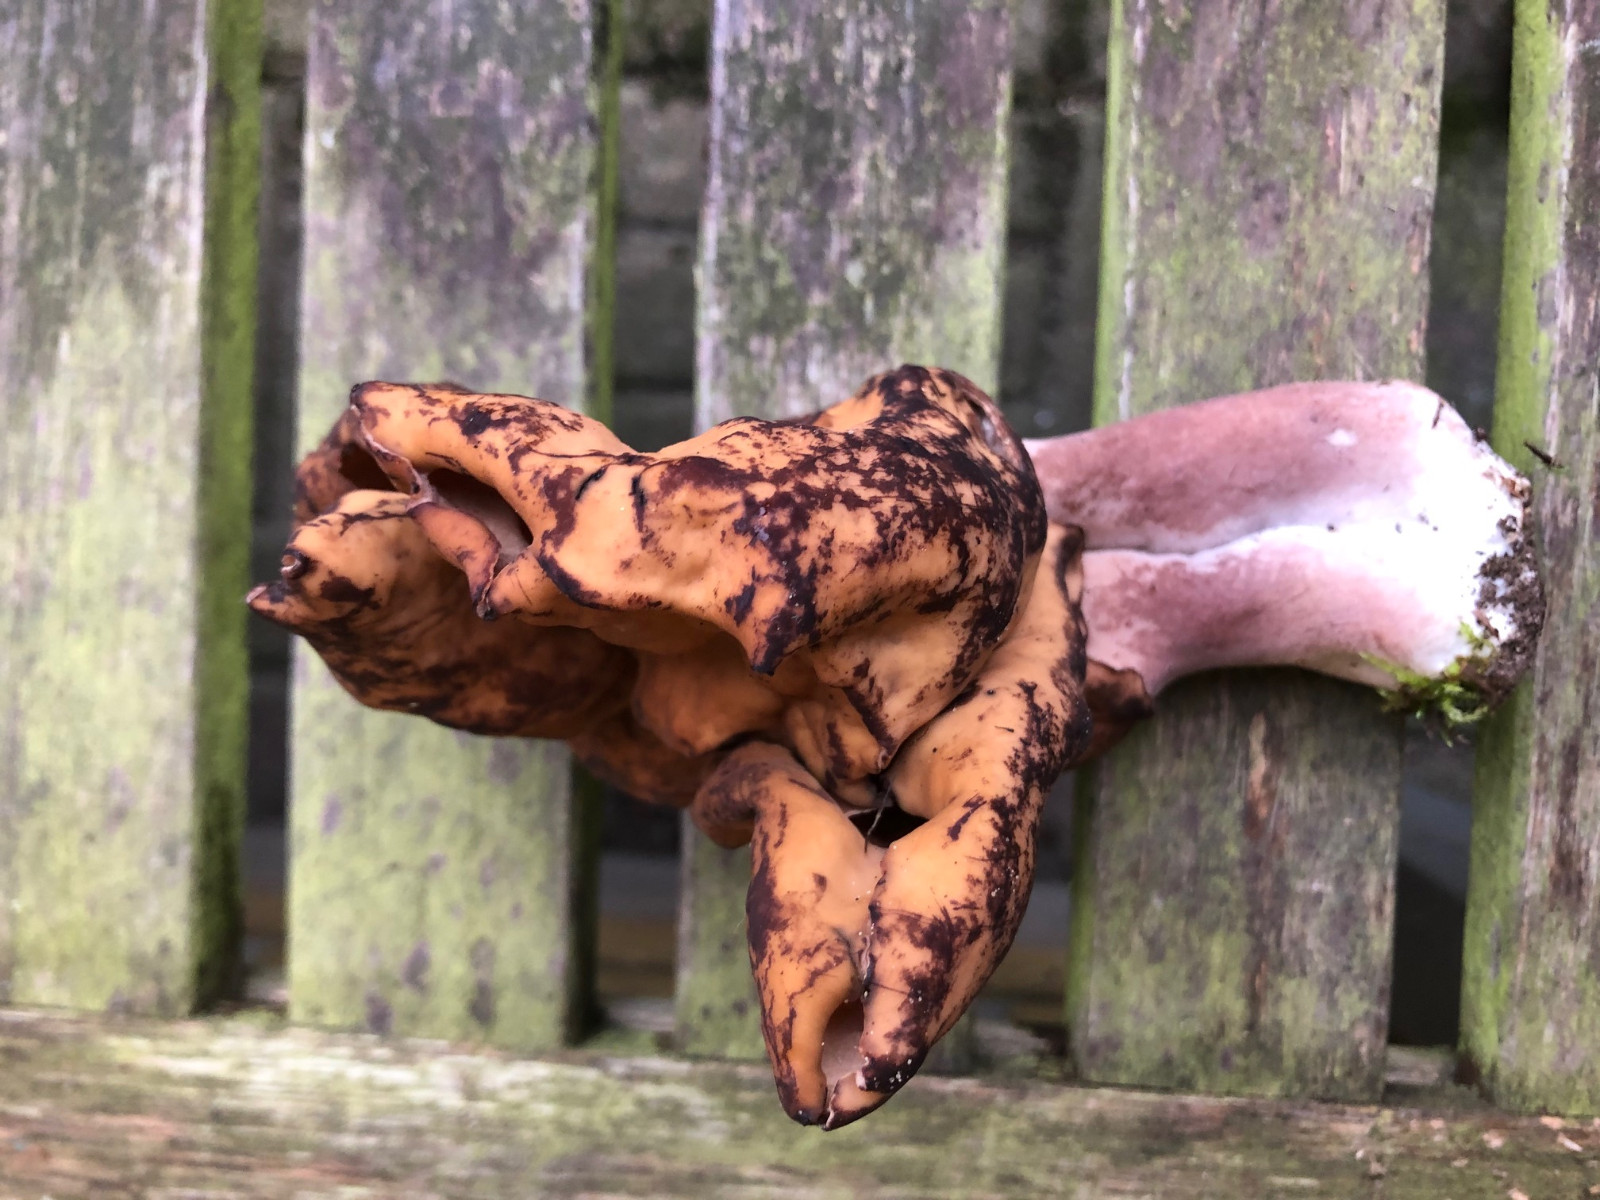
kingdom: Fungi
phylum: Ascomycota
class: Pezizomycetes
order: Pezizales
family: Discinaceae
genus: Gyromitra
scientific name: Gyromitra infula
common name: bispehue-stenmorkel
